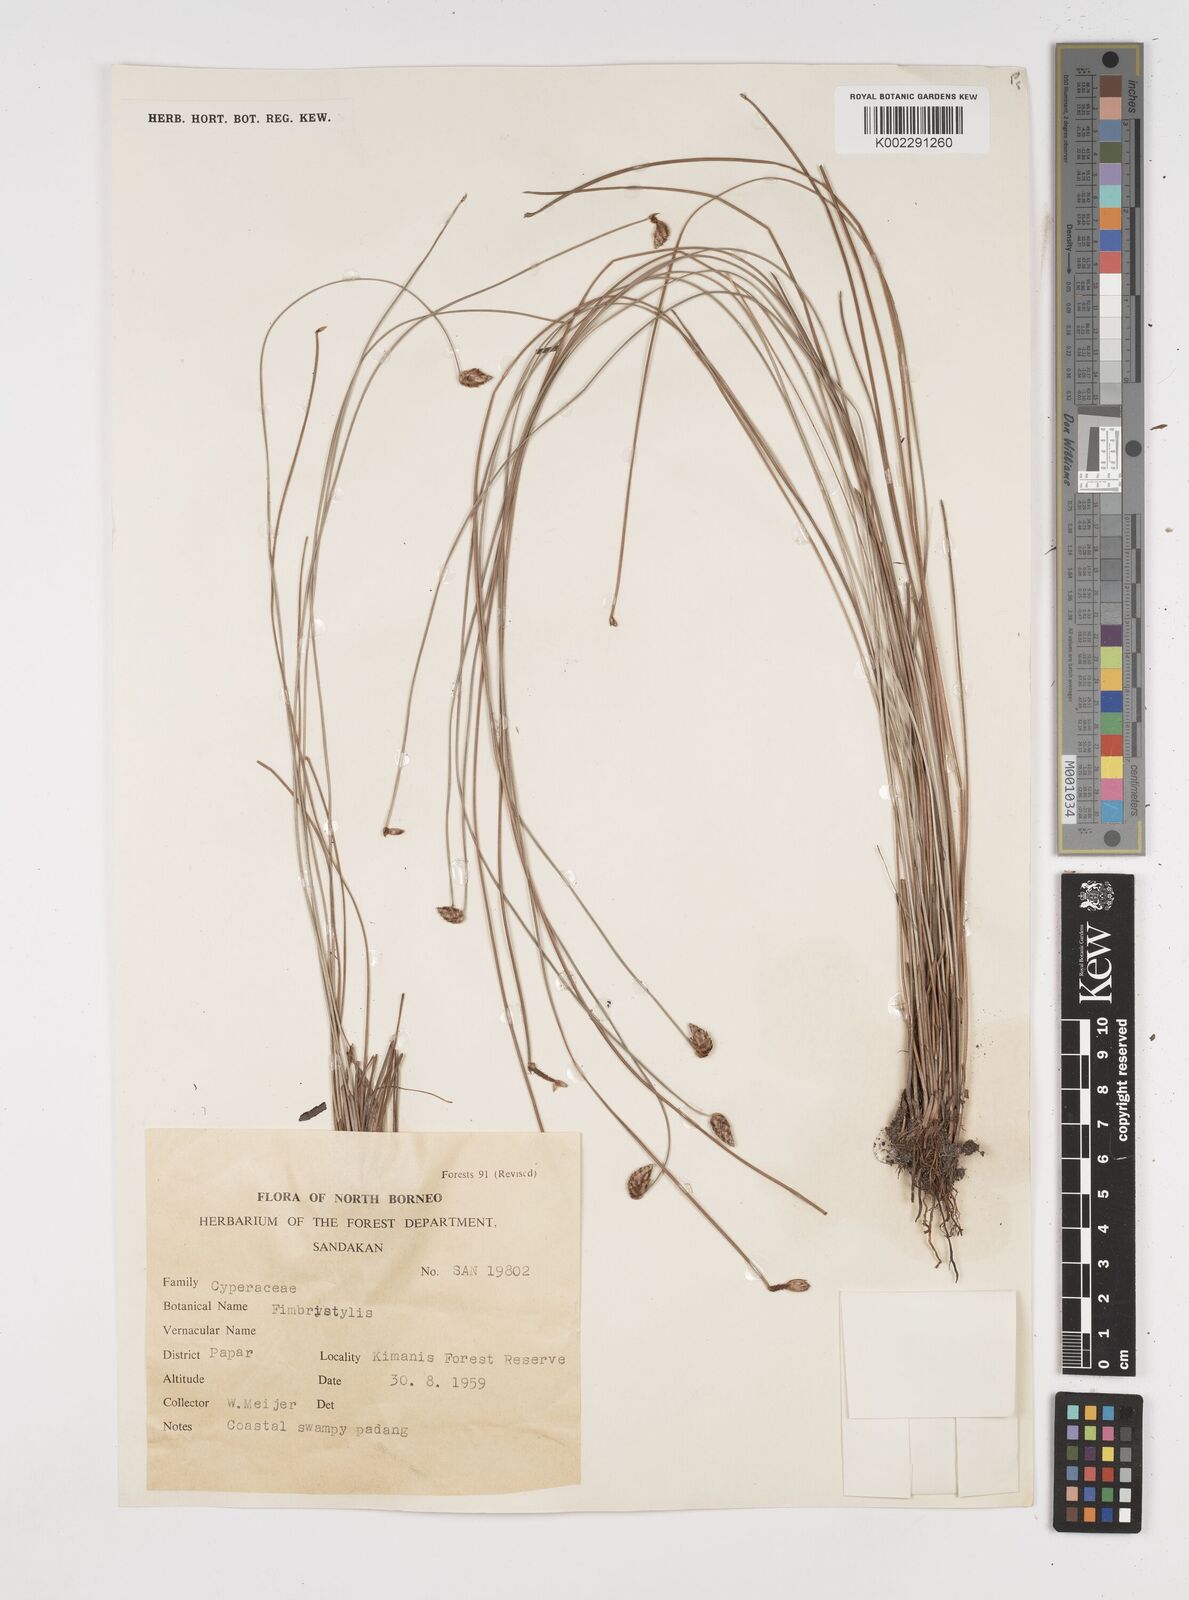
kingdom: Plantae
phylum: Tracheophyta
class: Liliopsida
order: Poales
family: Cyperaceae
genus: Fimbristylis
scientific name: Fimbristylis
